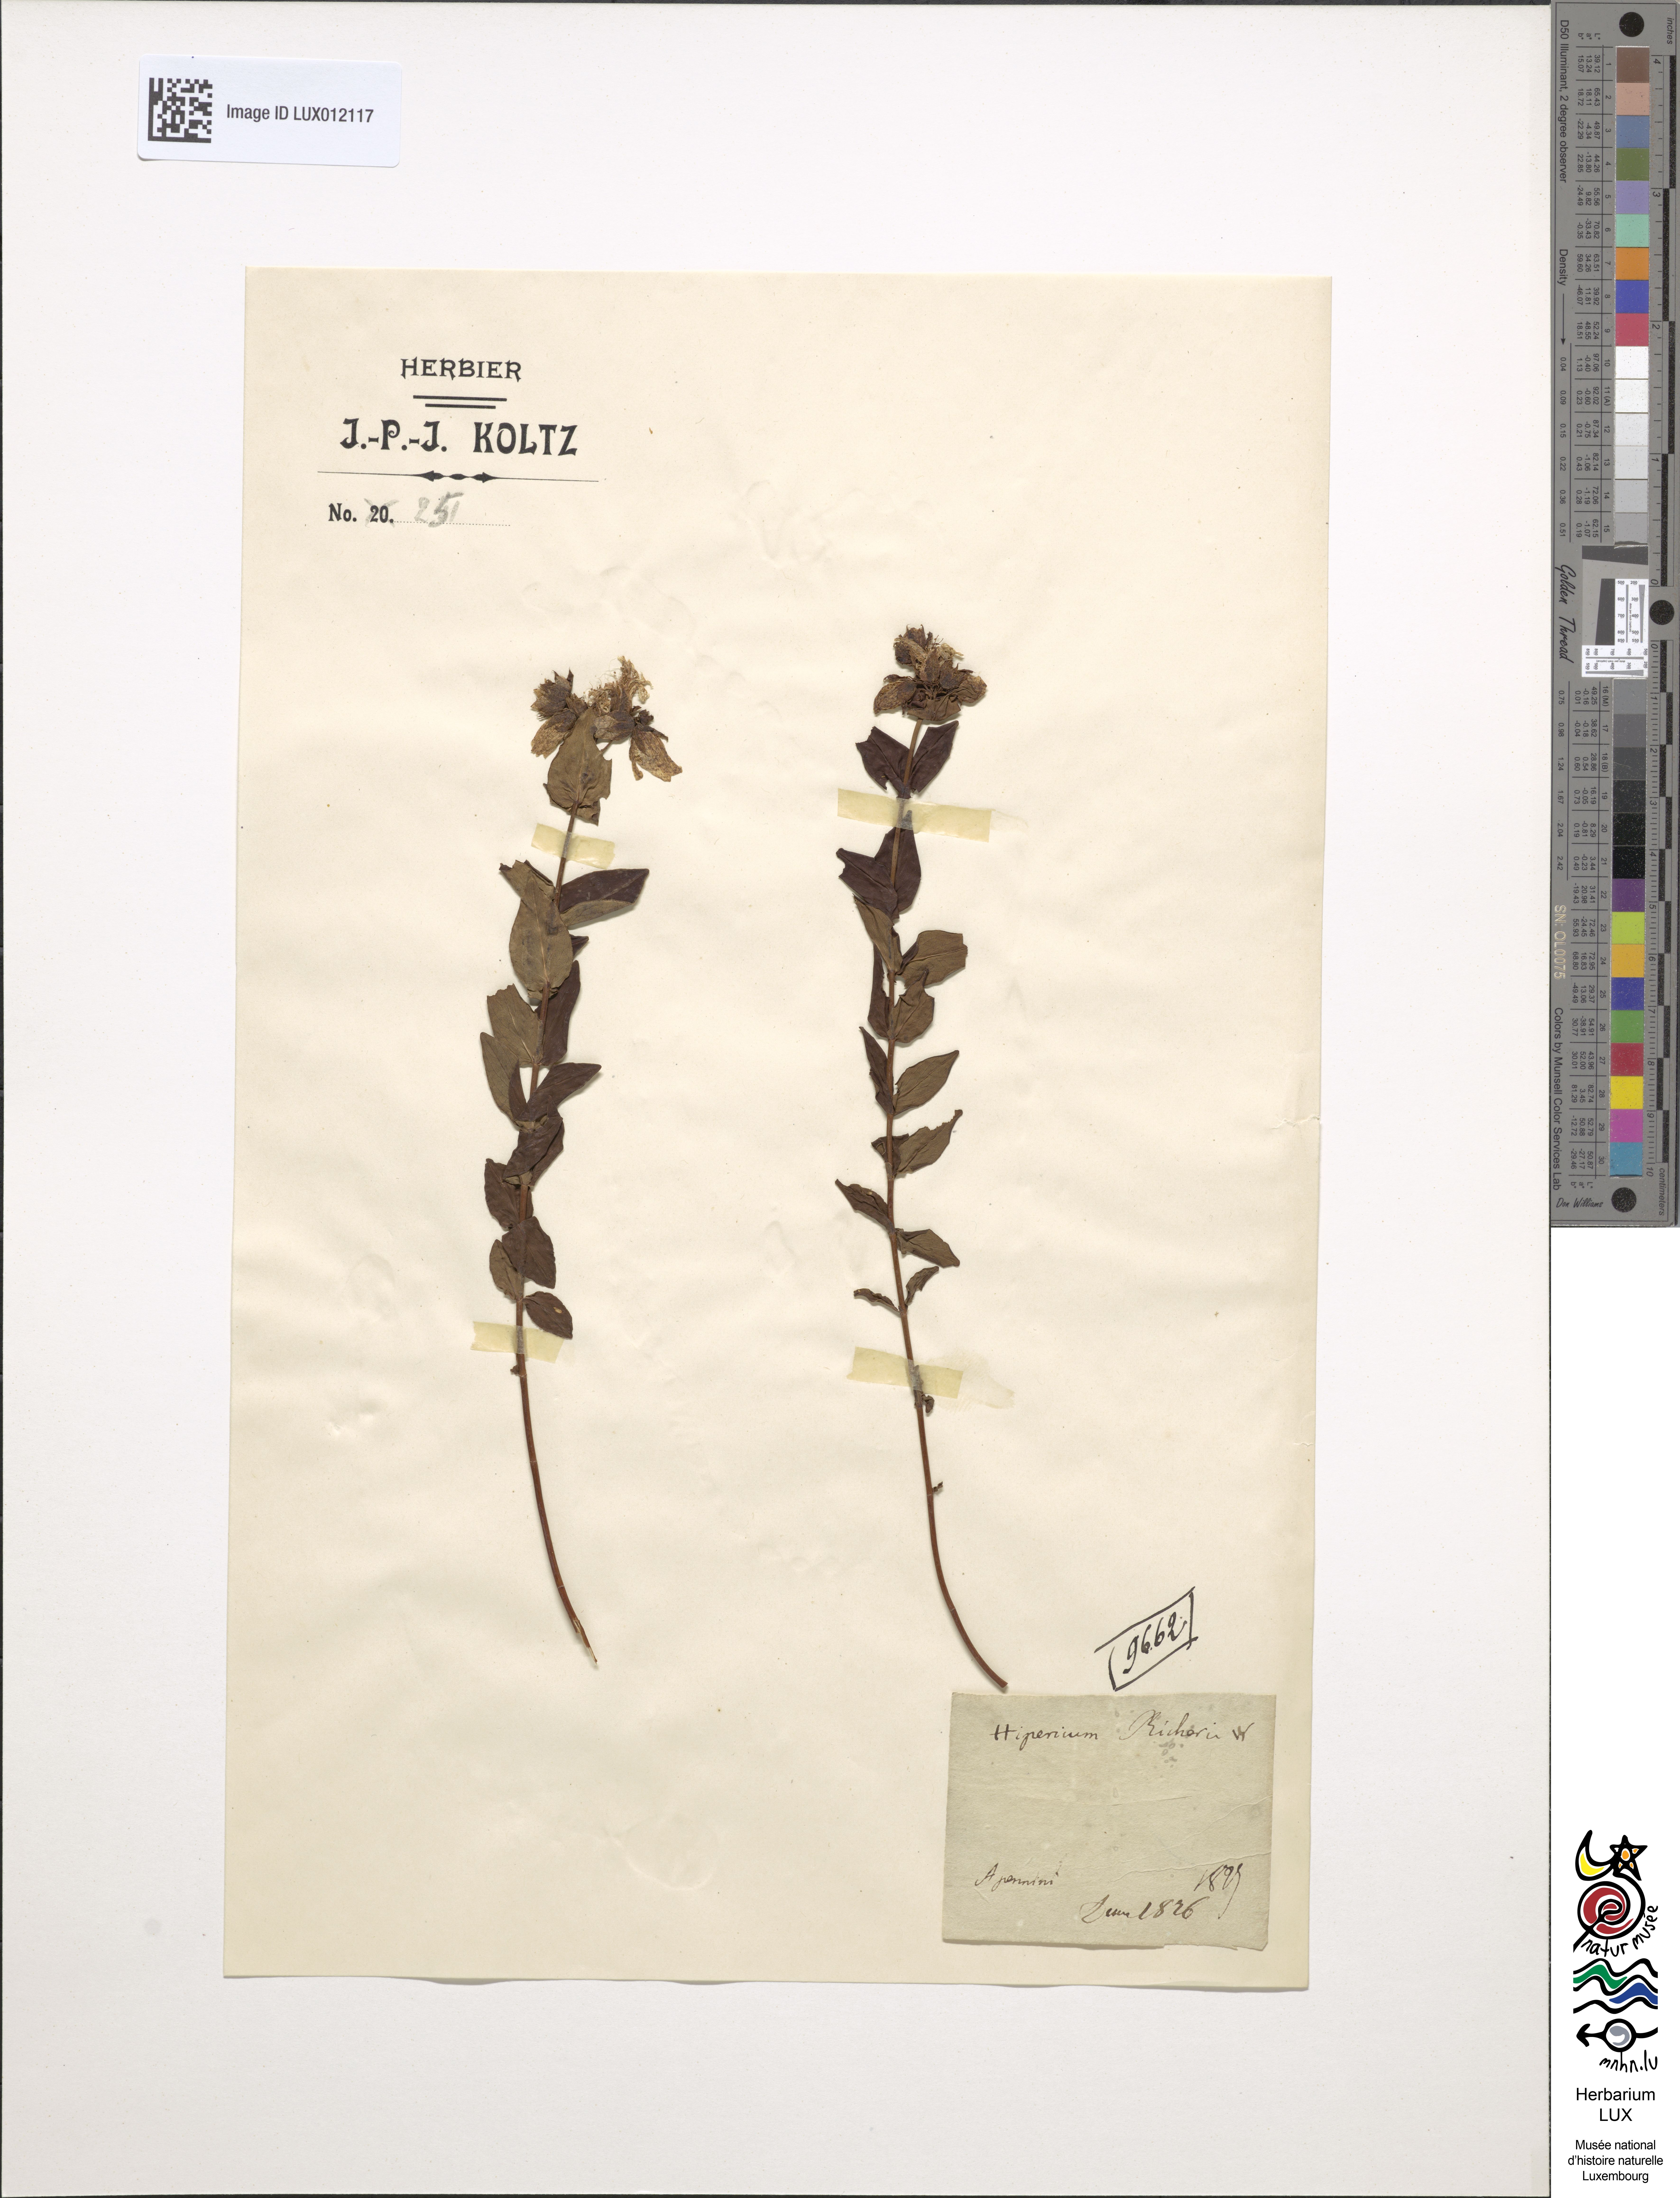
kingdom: Plantae
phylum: Tracheophyta
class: Magnoliopsida
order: Malpighiales
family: Hypericaceae
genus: Hypericum
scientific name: Hypericum richeri
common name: Alpine st john's-wort
